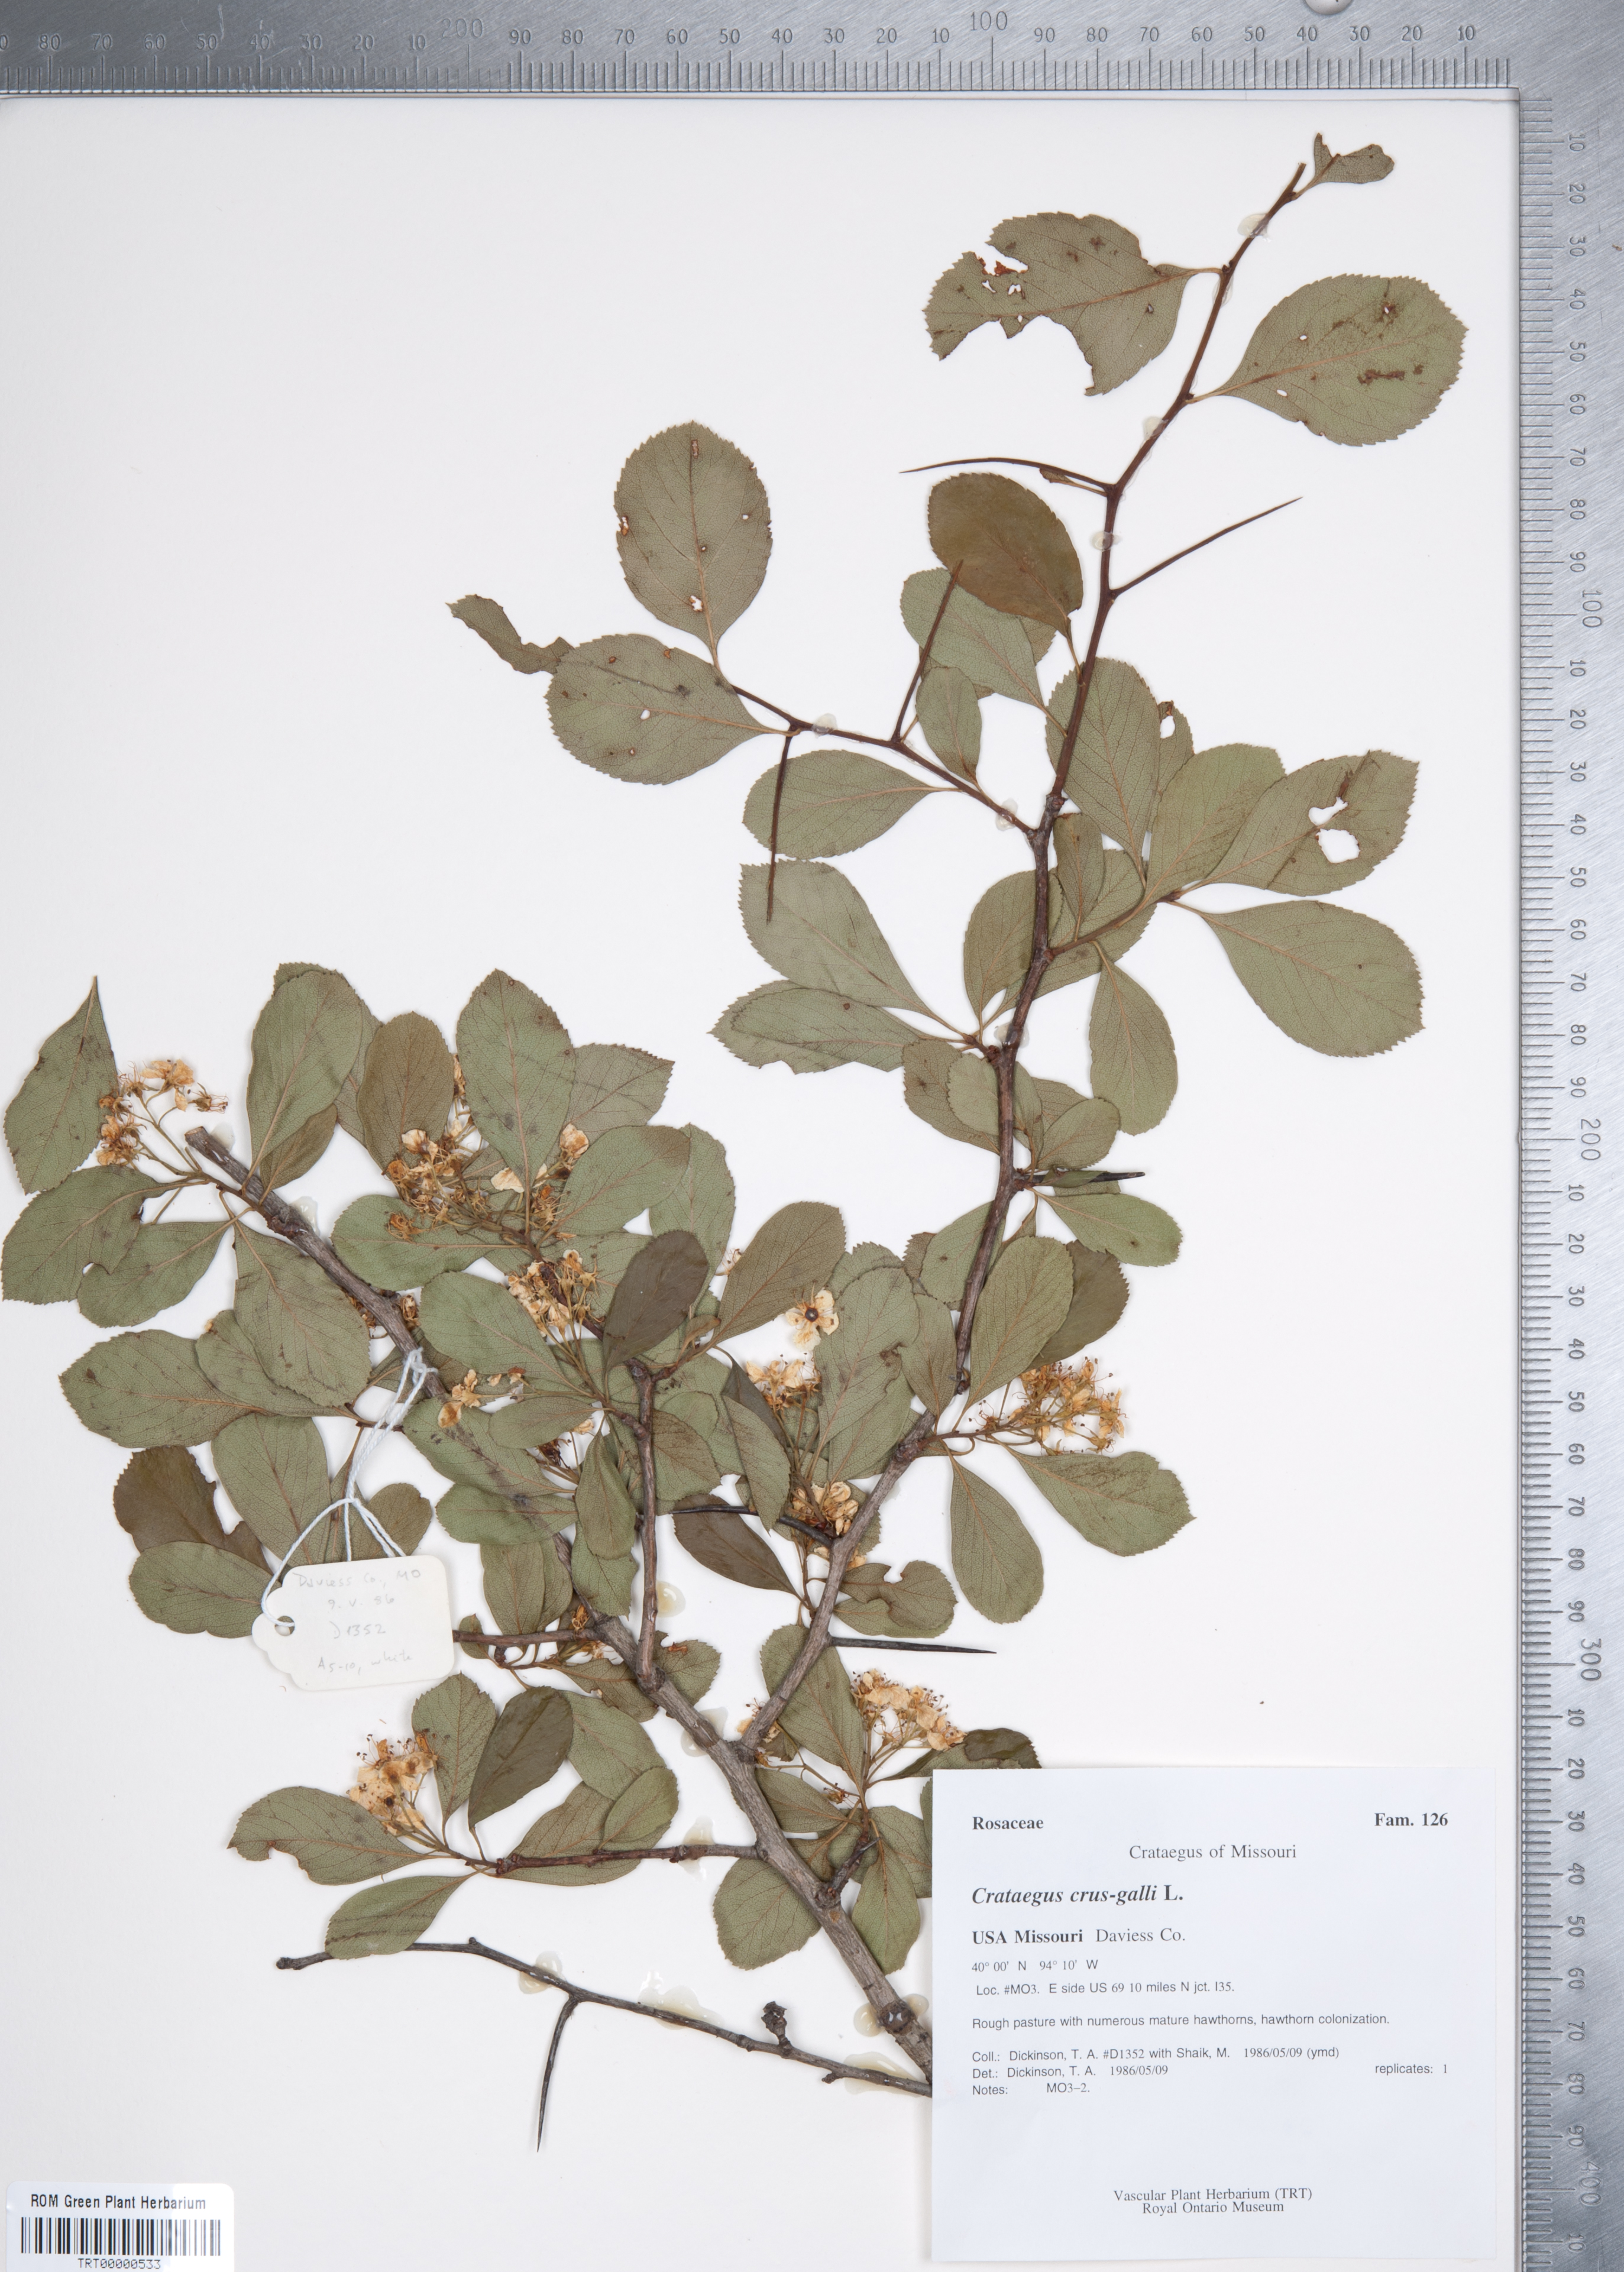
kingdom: Plantae
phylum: Tracheophyta
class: Magnoliopsida
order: Rosales
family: Rosaceae
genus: Crataegus
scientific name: Crataegus crus-galli
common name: Cockspurthorn
